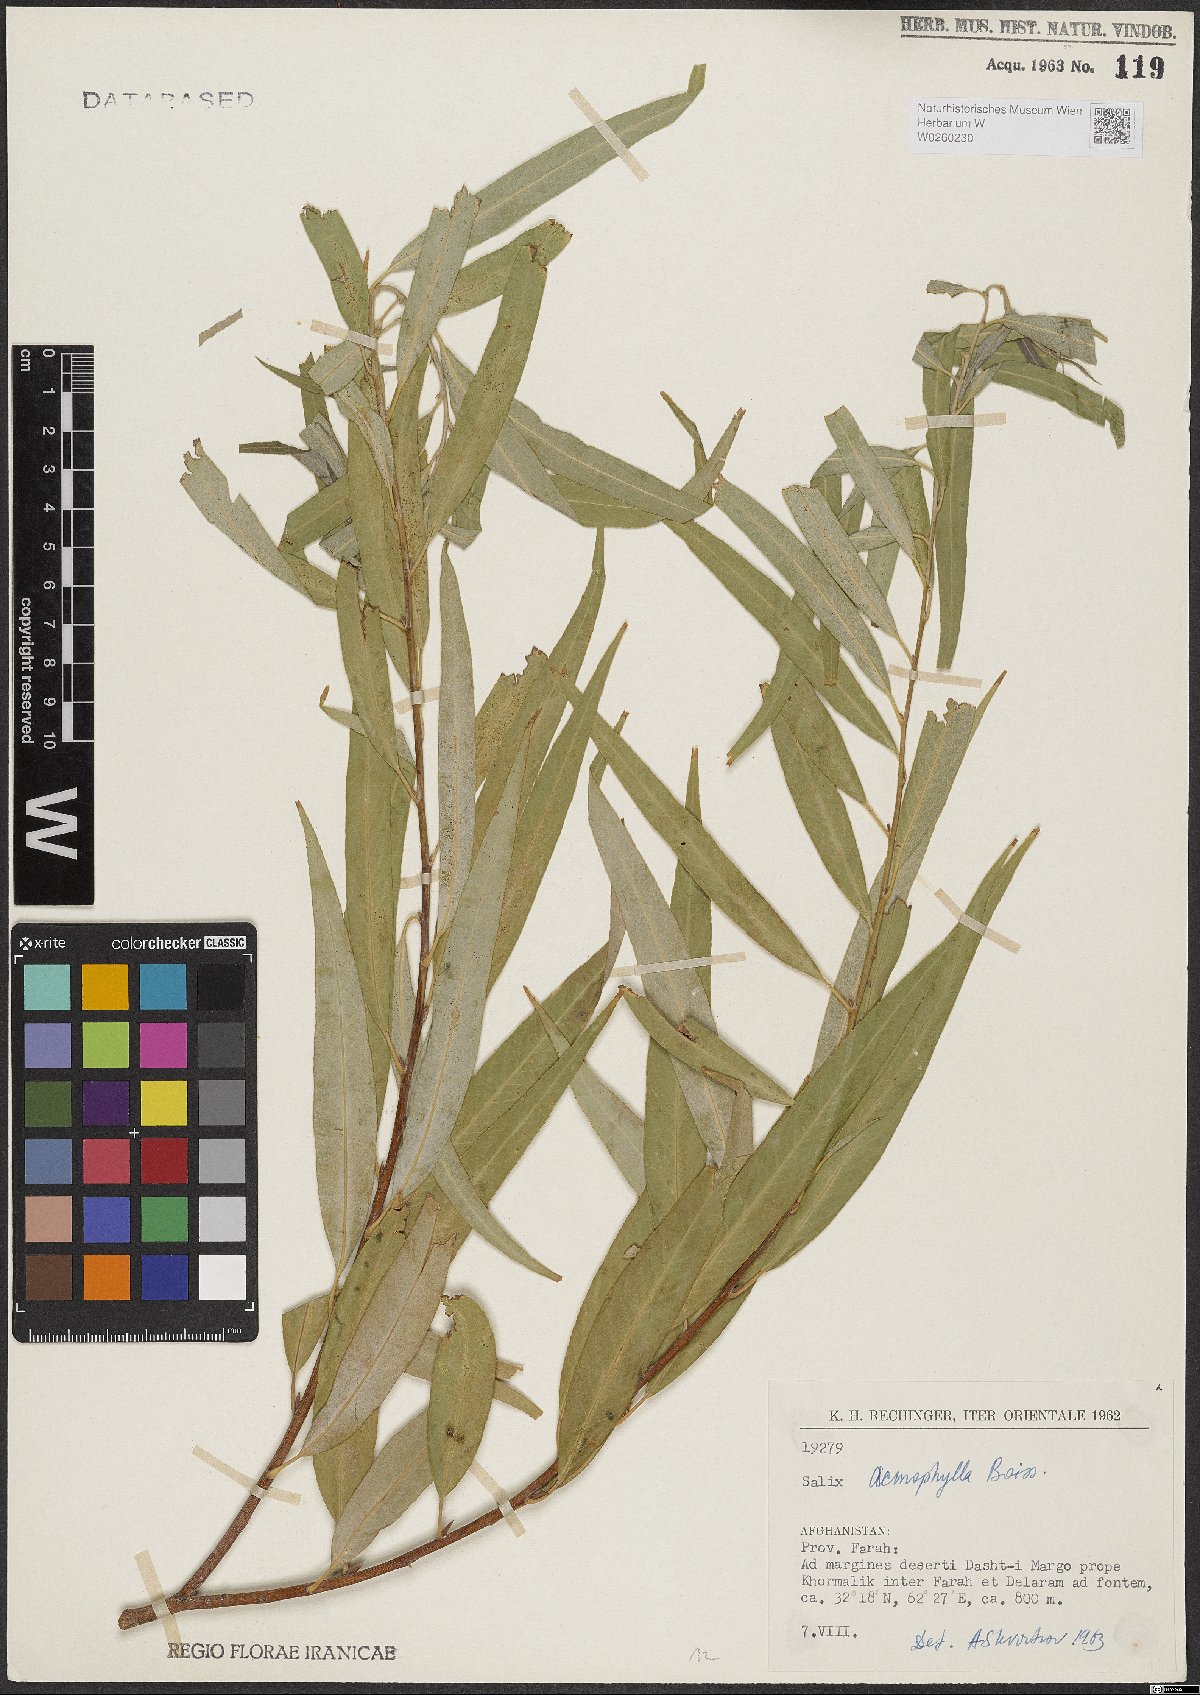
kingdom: Plantae
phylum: Tracheophyta
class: Magnoliopsida
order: Malpighiales
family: Salicaceae
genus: Salix
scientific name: Salix acmophylla
